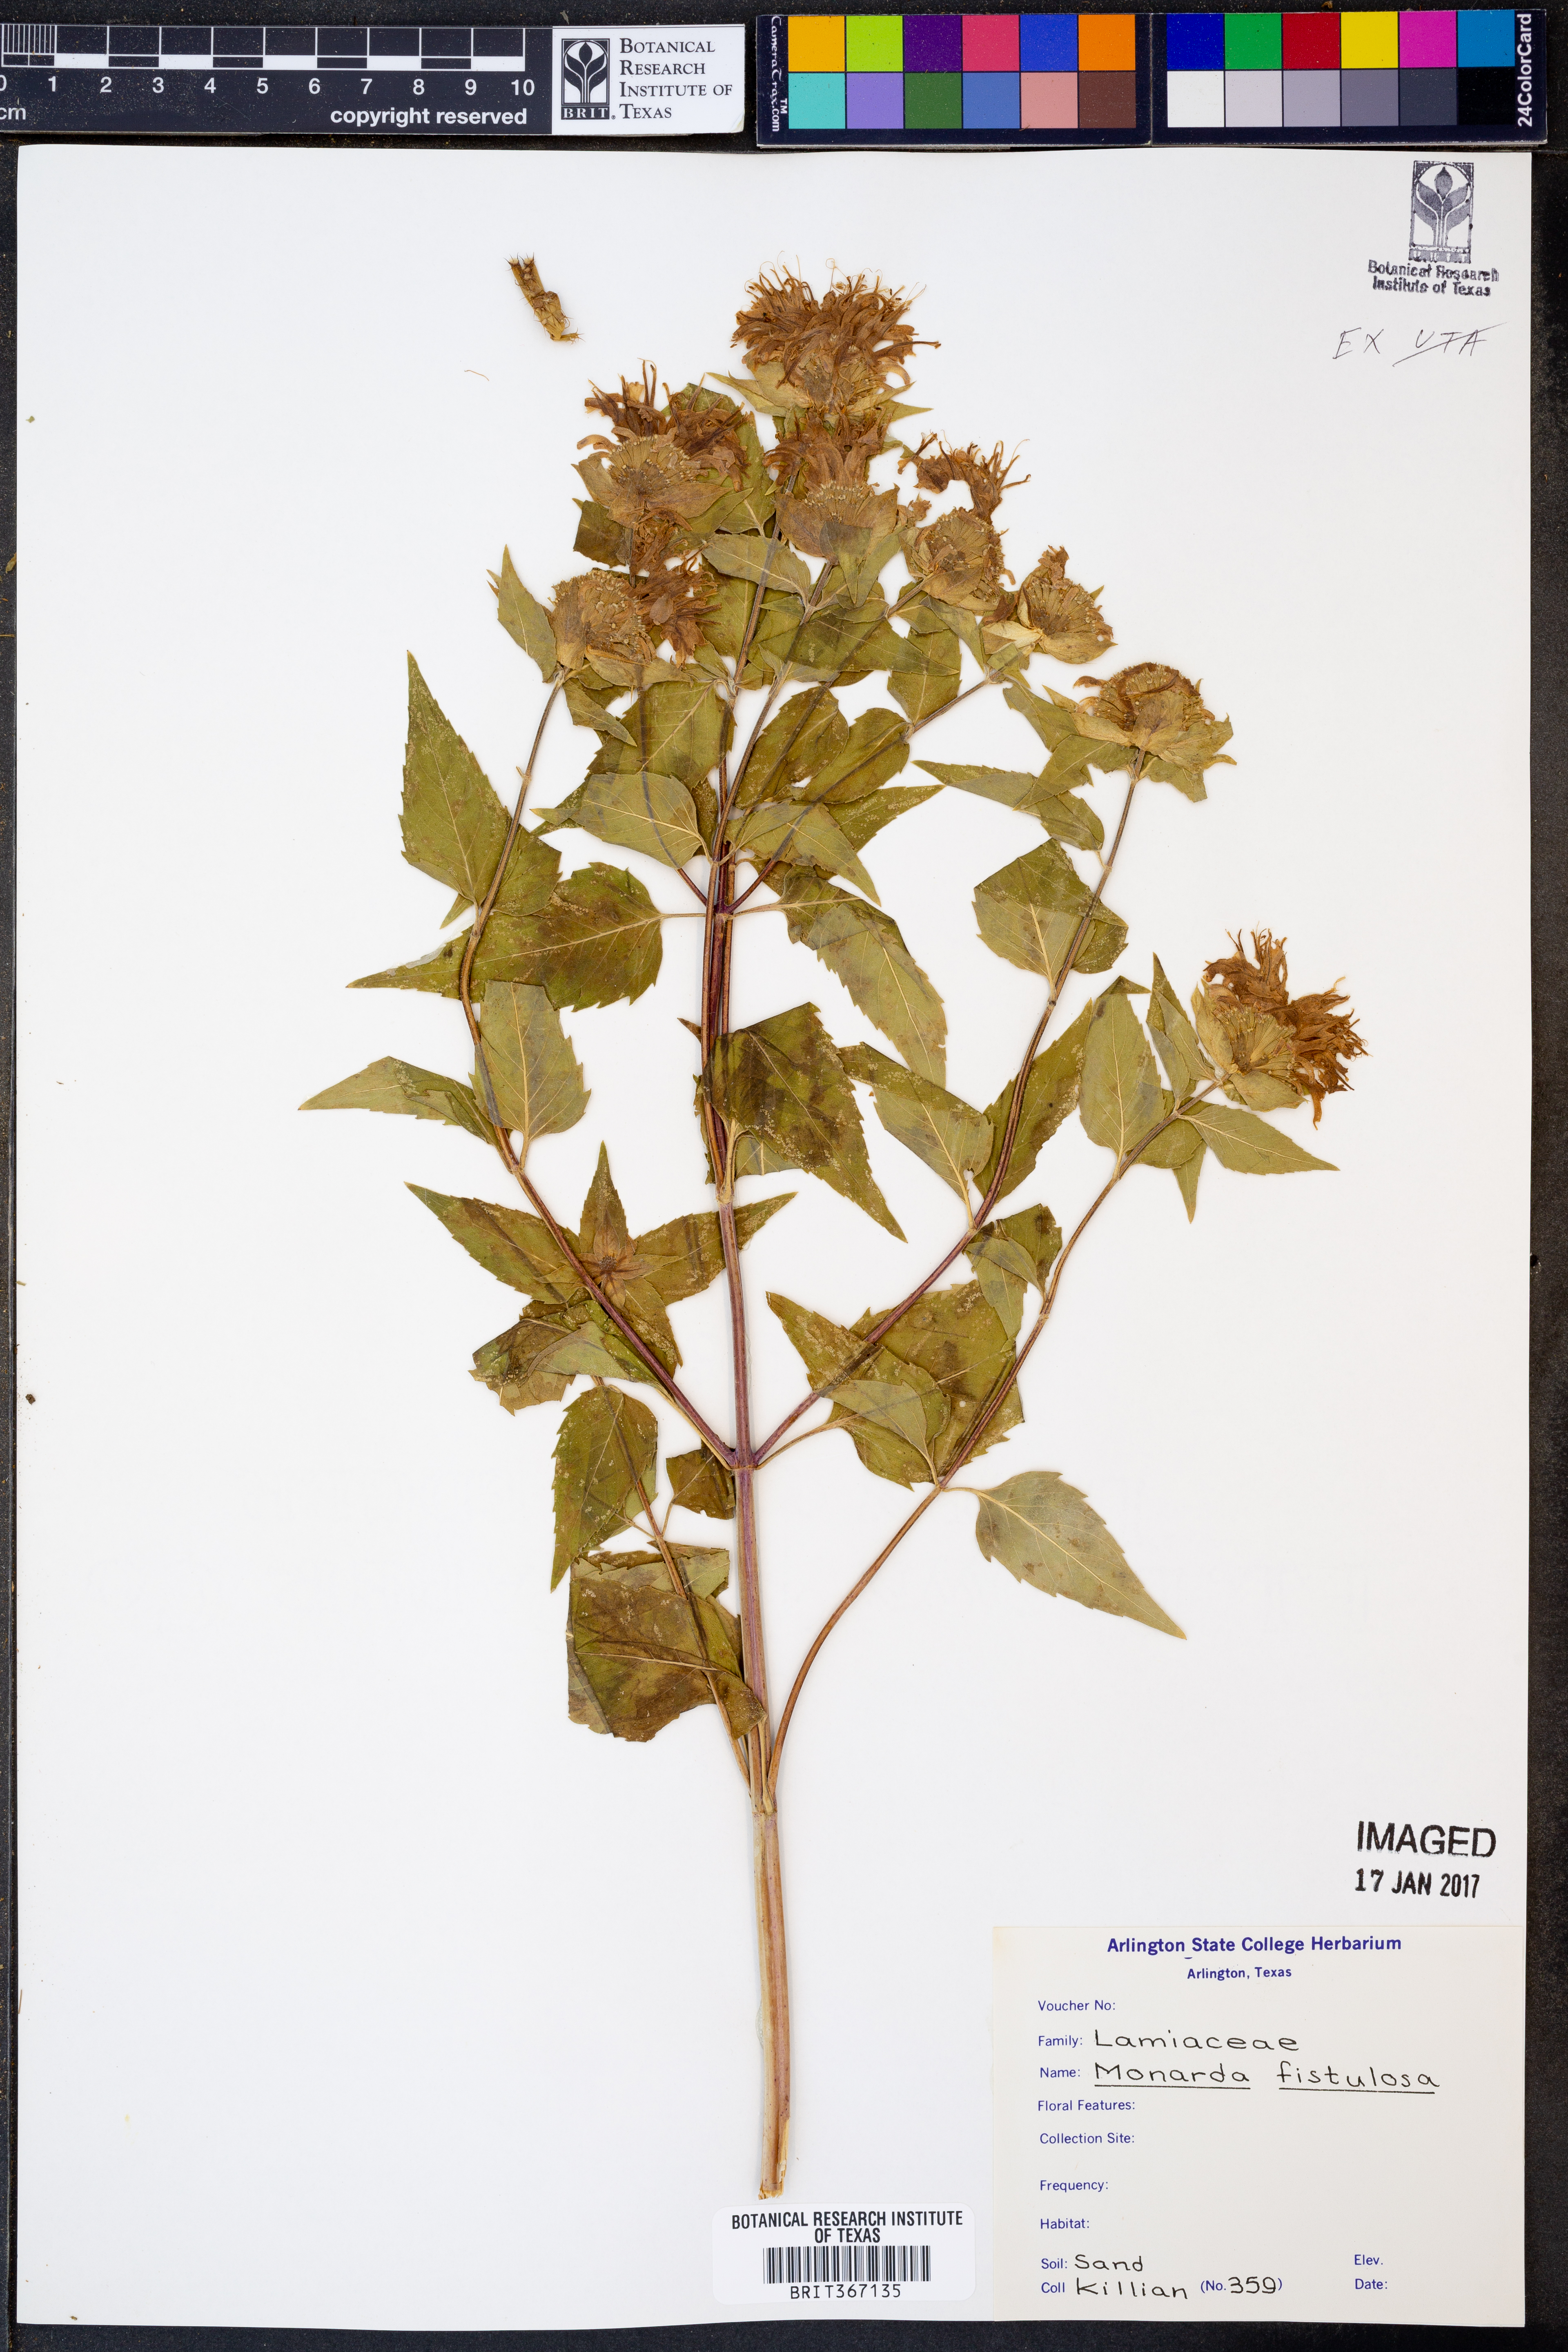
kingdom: Plantae
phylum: Tracheophyta
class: Magnoliopsida
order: Lamiales
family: Lamiaceae
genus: Monarda
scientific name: Monarda fistulosa
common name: Purple beebalm
